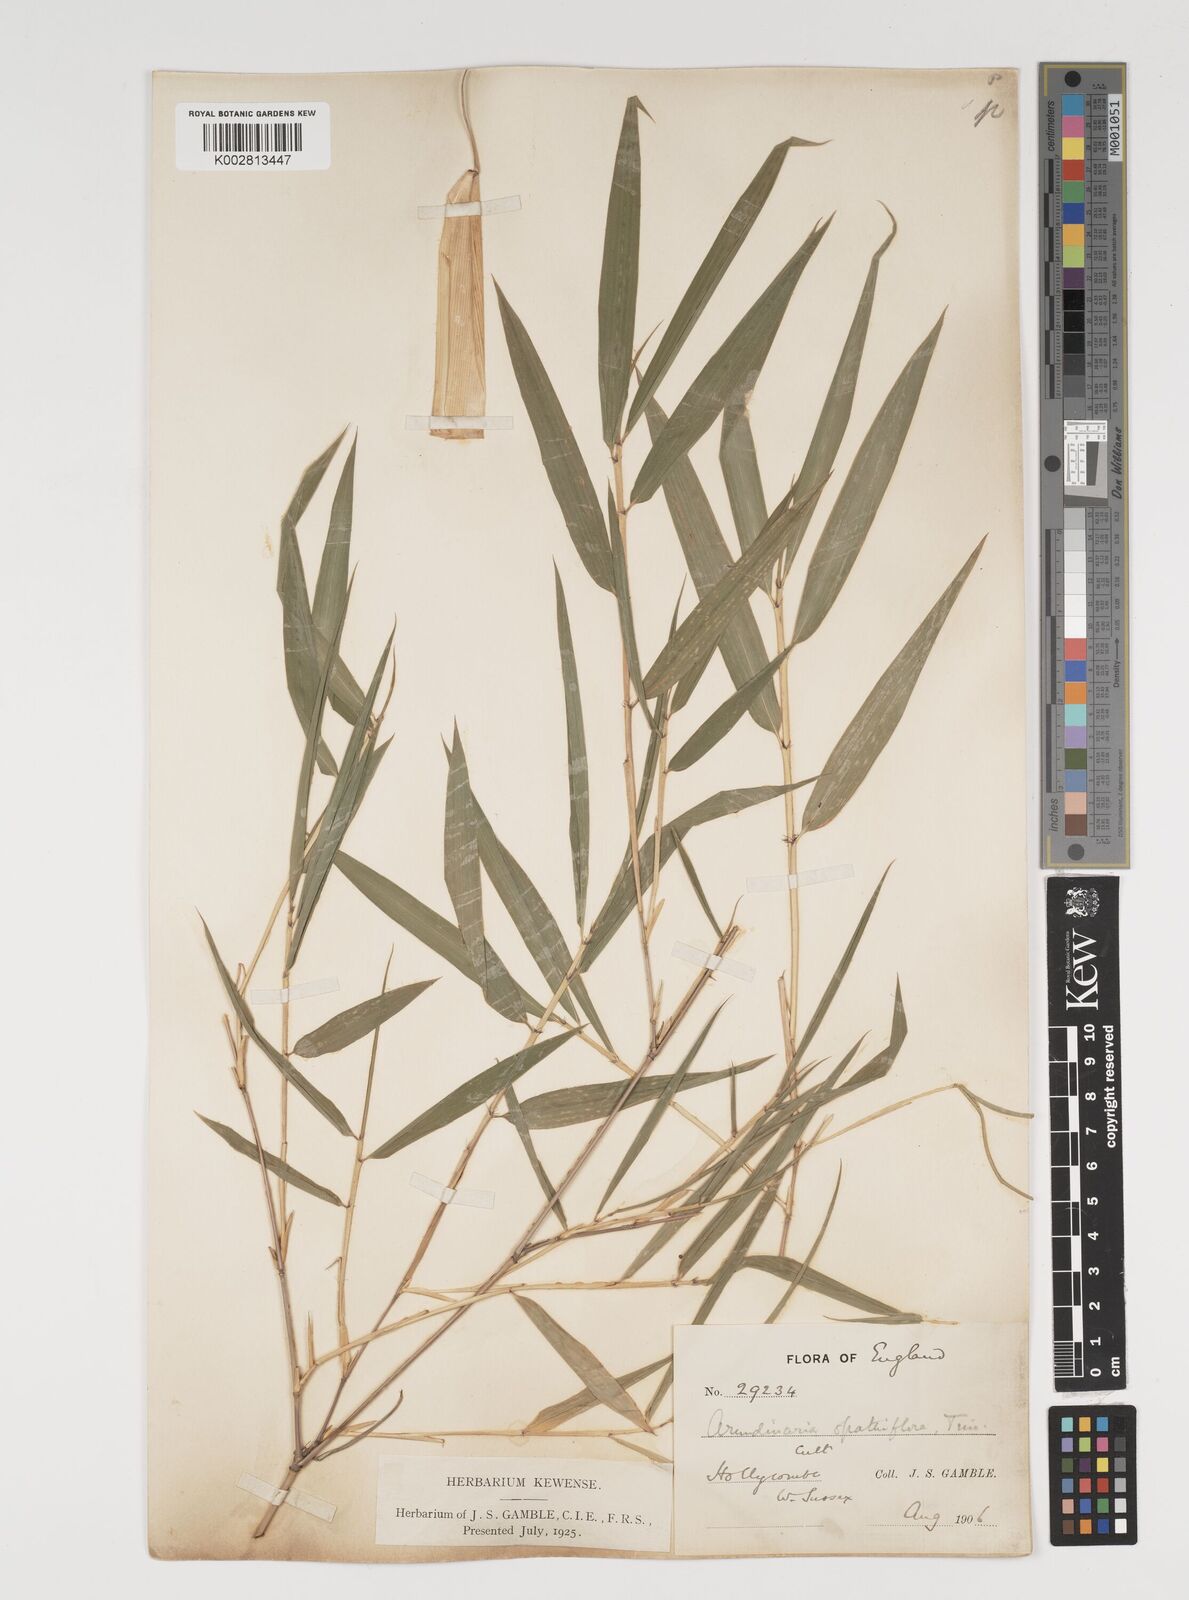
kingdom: Plantae
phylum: Tracheophyta
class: Liliopsida
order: Poales
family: Poaceae
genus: Thamnocalamus
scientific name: Thamnocalamus spathiflorus
